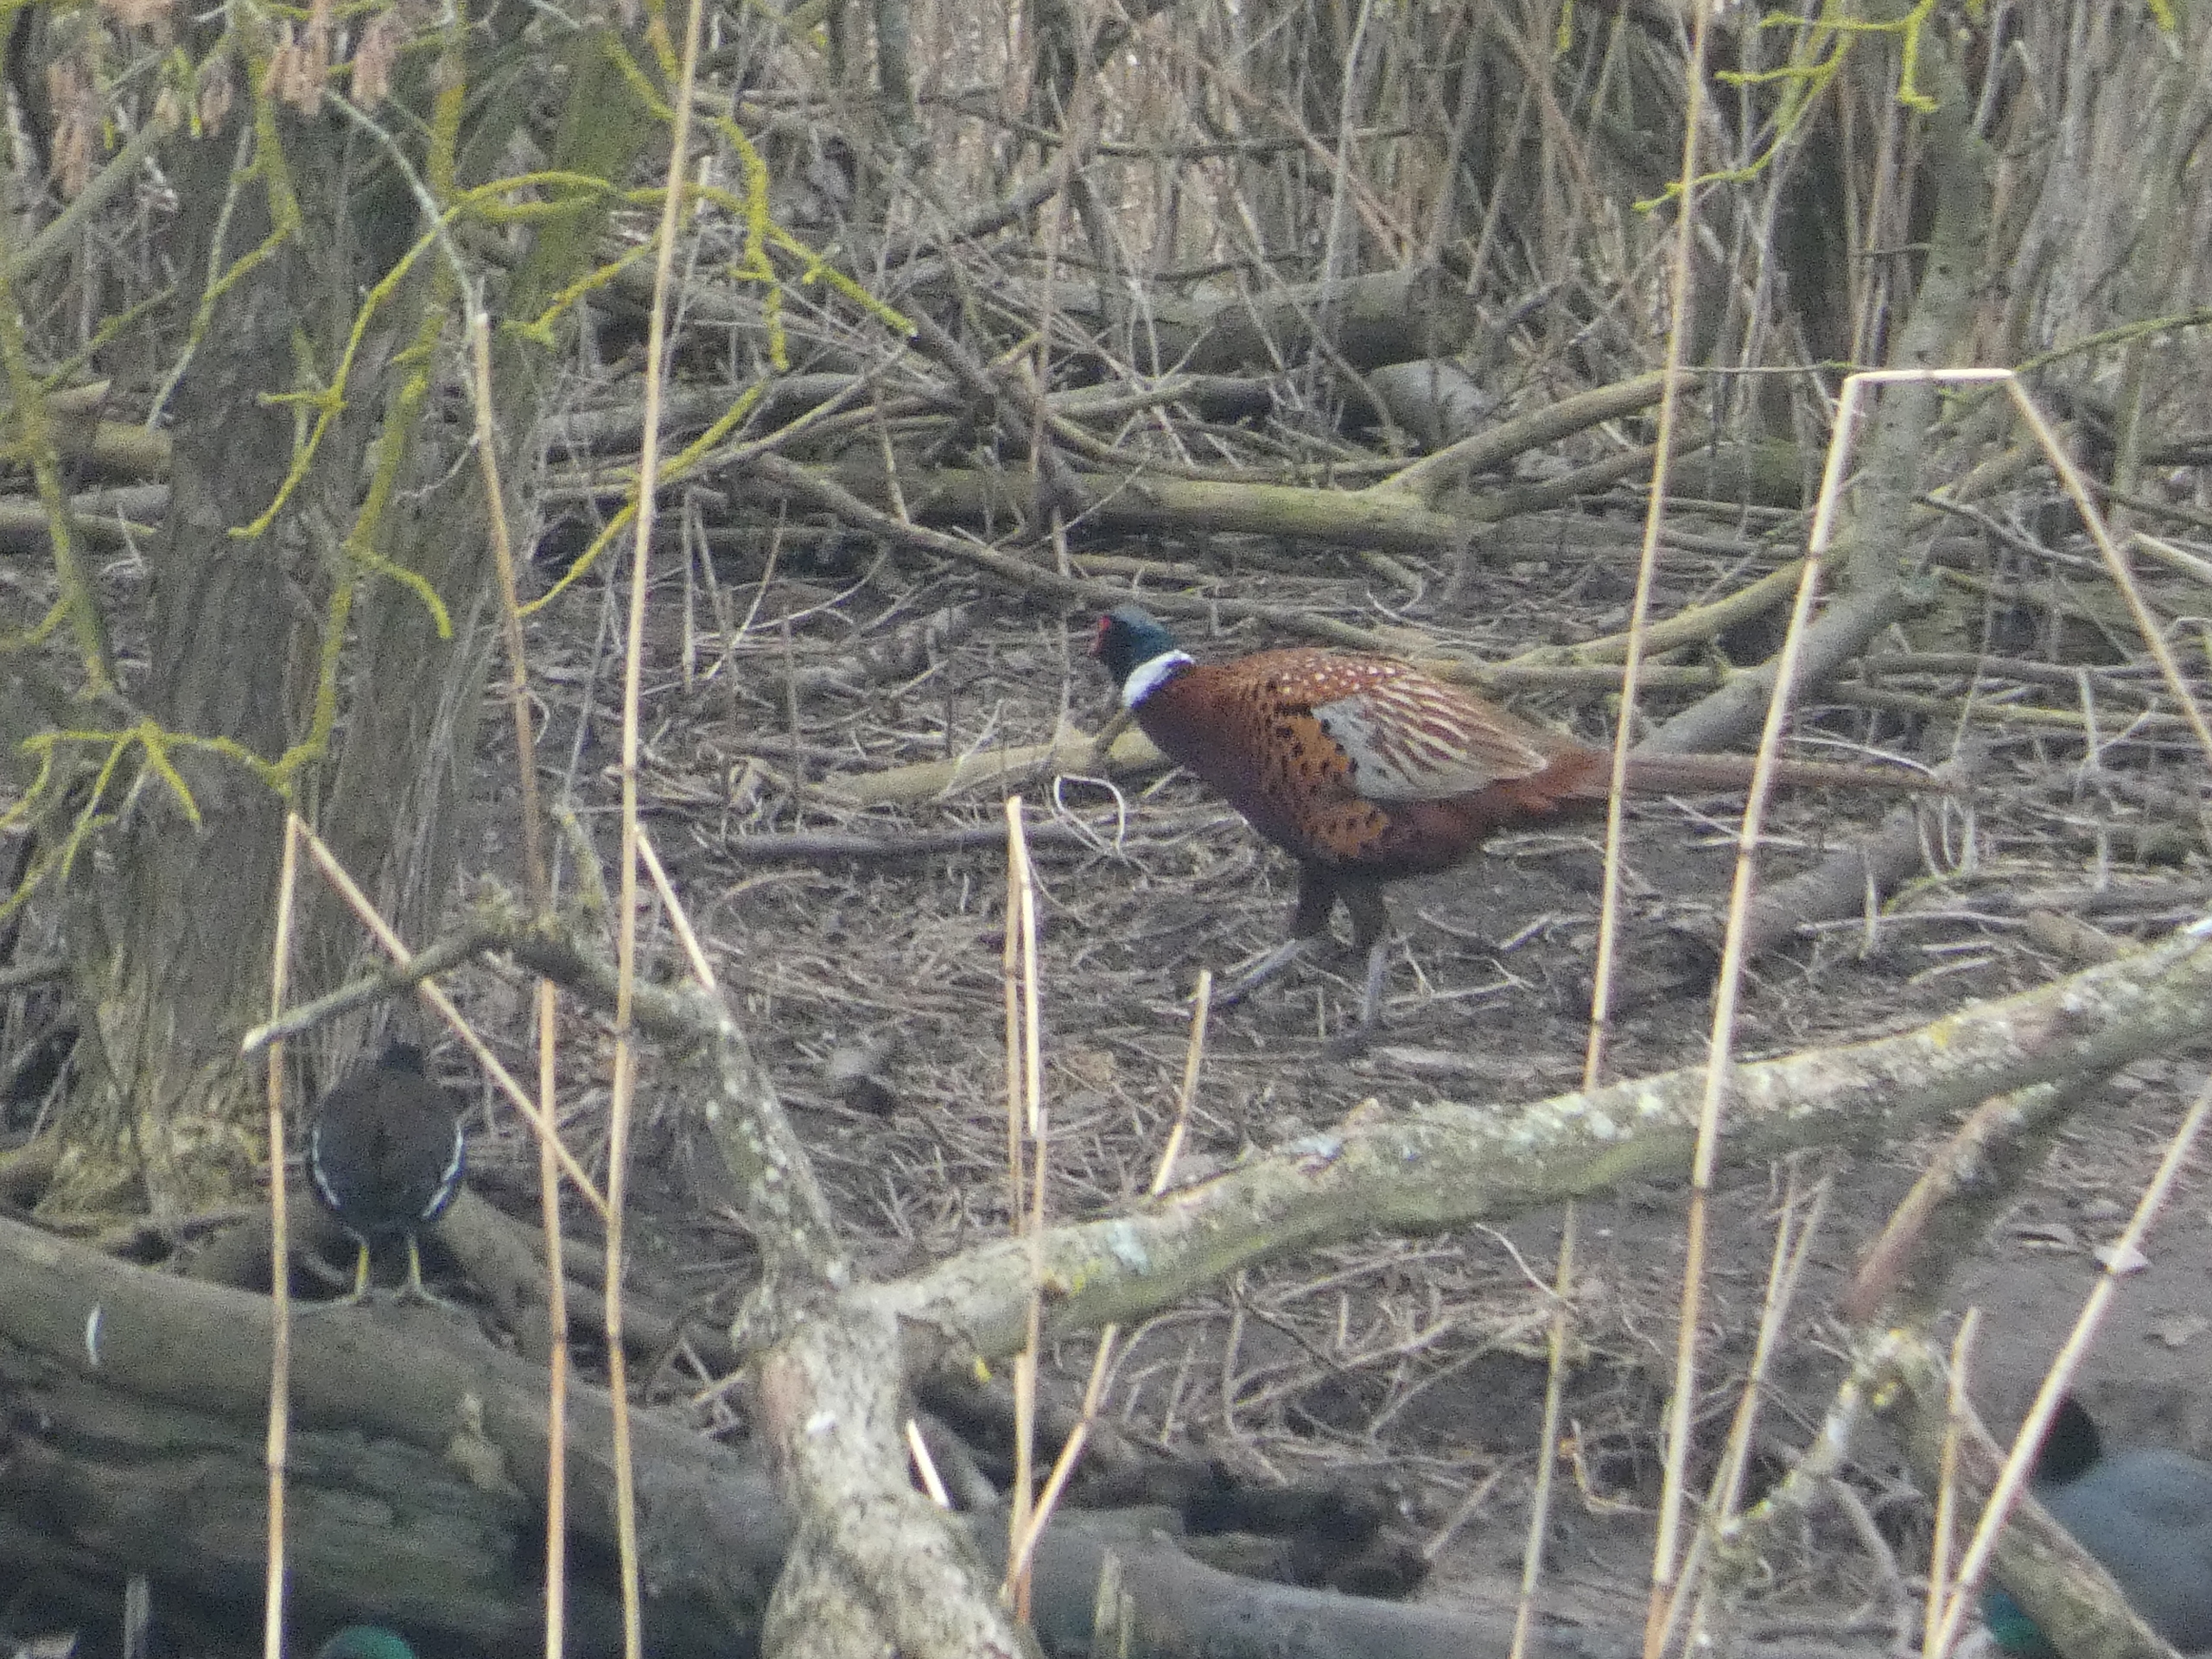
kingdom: Animalia
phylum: Chordata
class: Aves
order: Galliformes
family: Phasianidae
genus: Phasianus
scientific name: Phasianus colchicus
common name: Fasan
